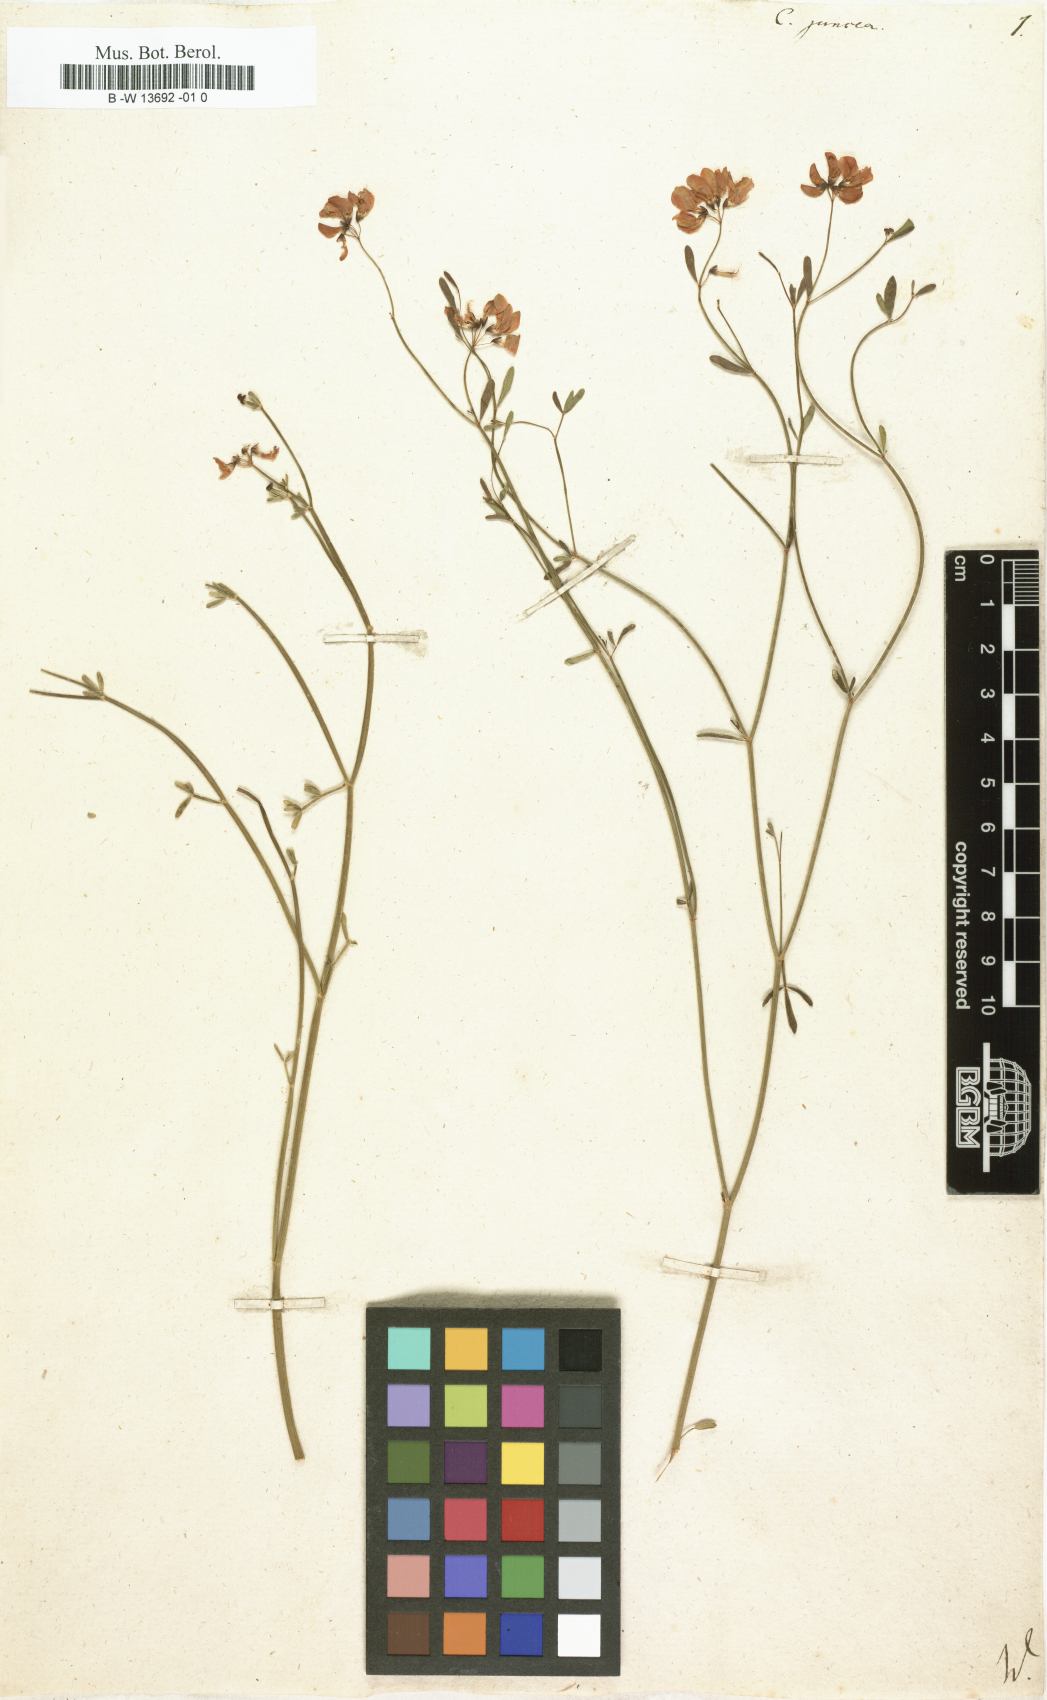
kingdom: Plantae
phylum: Tracheophyta
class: Magnoliopsida
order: Fabales
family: Fabaceae
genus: Coronilla
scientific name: Coronilla juncea
